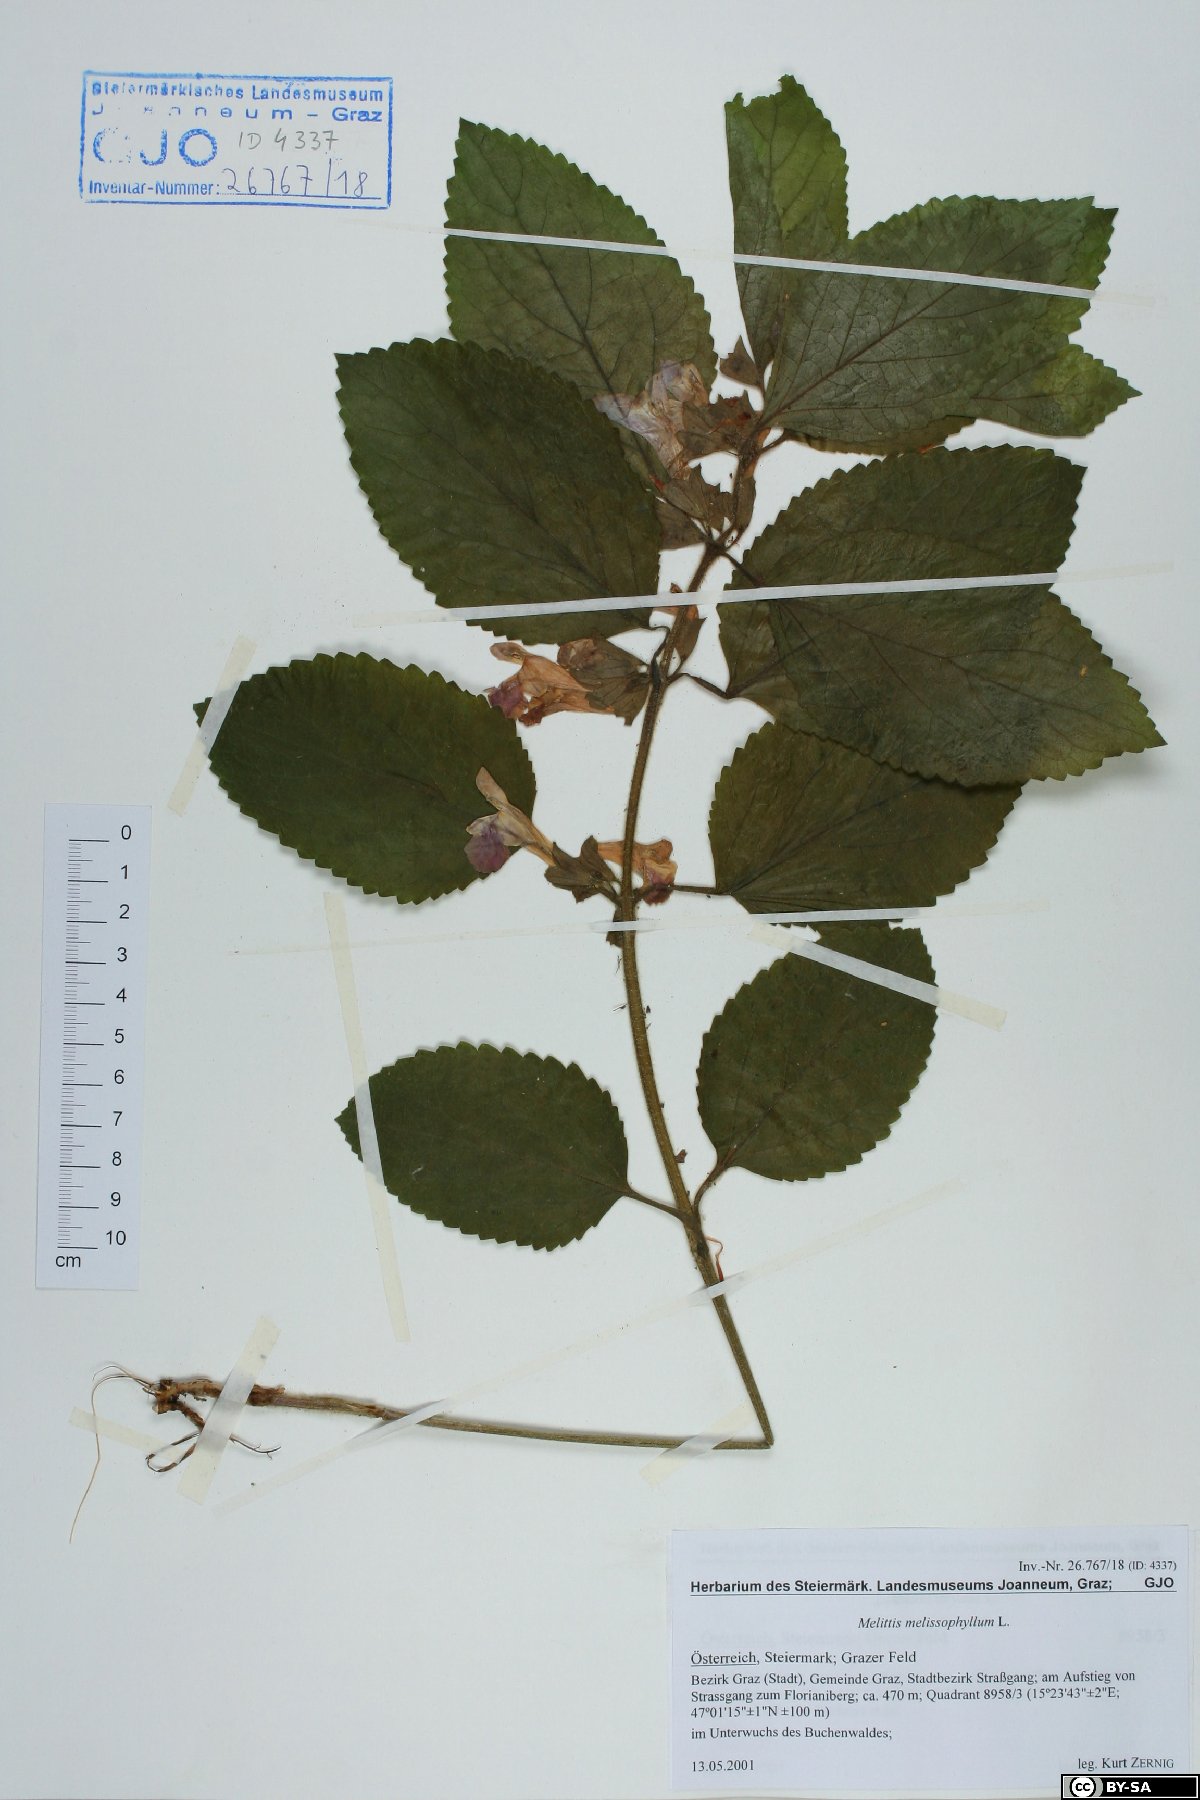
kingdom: Plantae
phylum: Tracheophyta
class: Magnoliopsida
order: Lamiales
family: Lamiaceae
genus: Melittis
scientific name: Melittis melissophyllum
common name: Bastard balm
